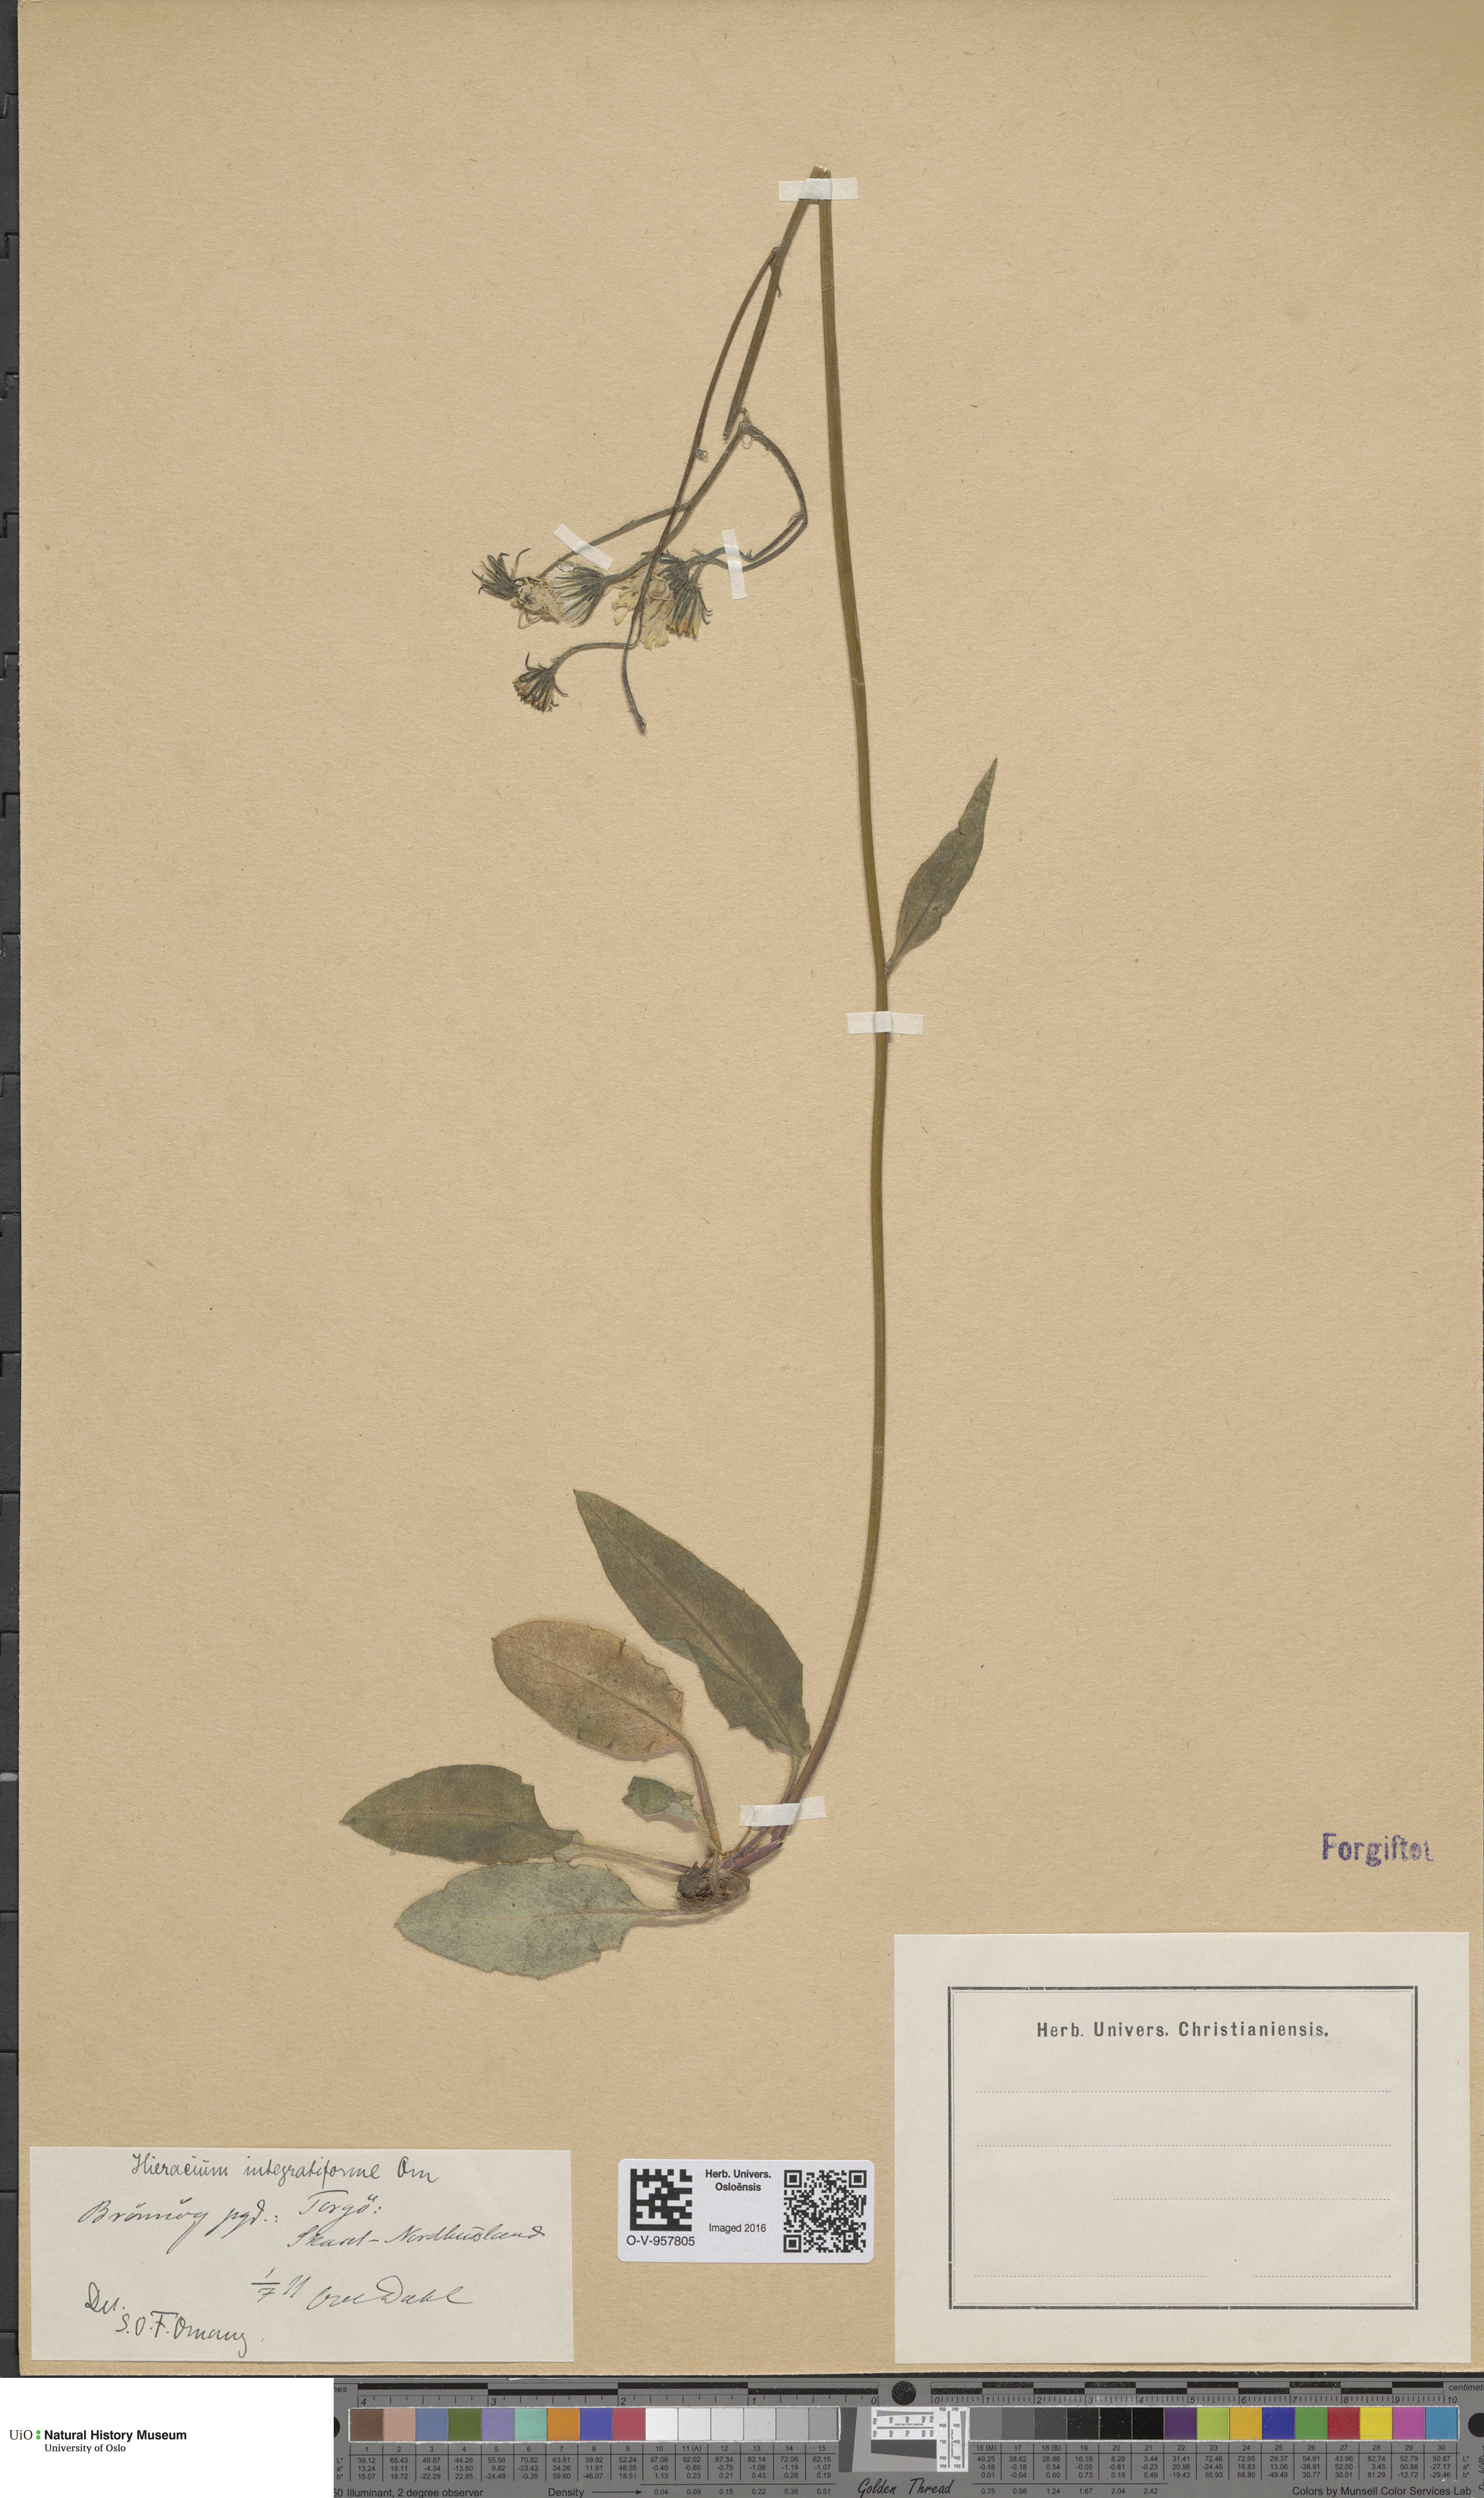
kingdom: Plantae
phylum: Tracheophyta
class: Magnoliopsida
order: Asterales
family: Asteraceae
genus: Hieracium
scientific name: Hieracium integratiforme
